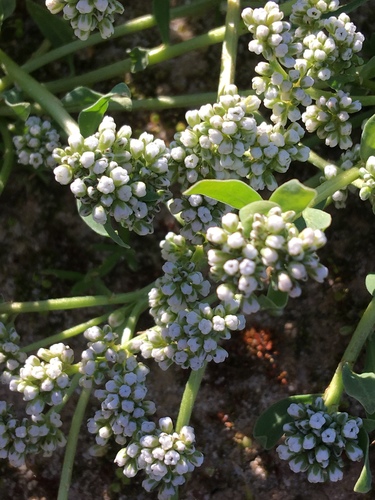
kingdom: Plantae
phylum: Tracheophyta
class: Magnoliopsida
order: Caryophyllales
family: Caryophyllaceae
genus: Corrigiola
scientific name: Corrigiola litoralis
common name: Strapwort
